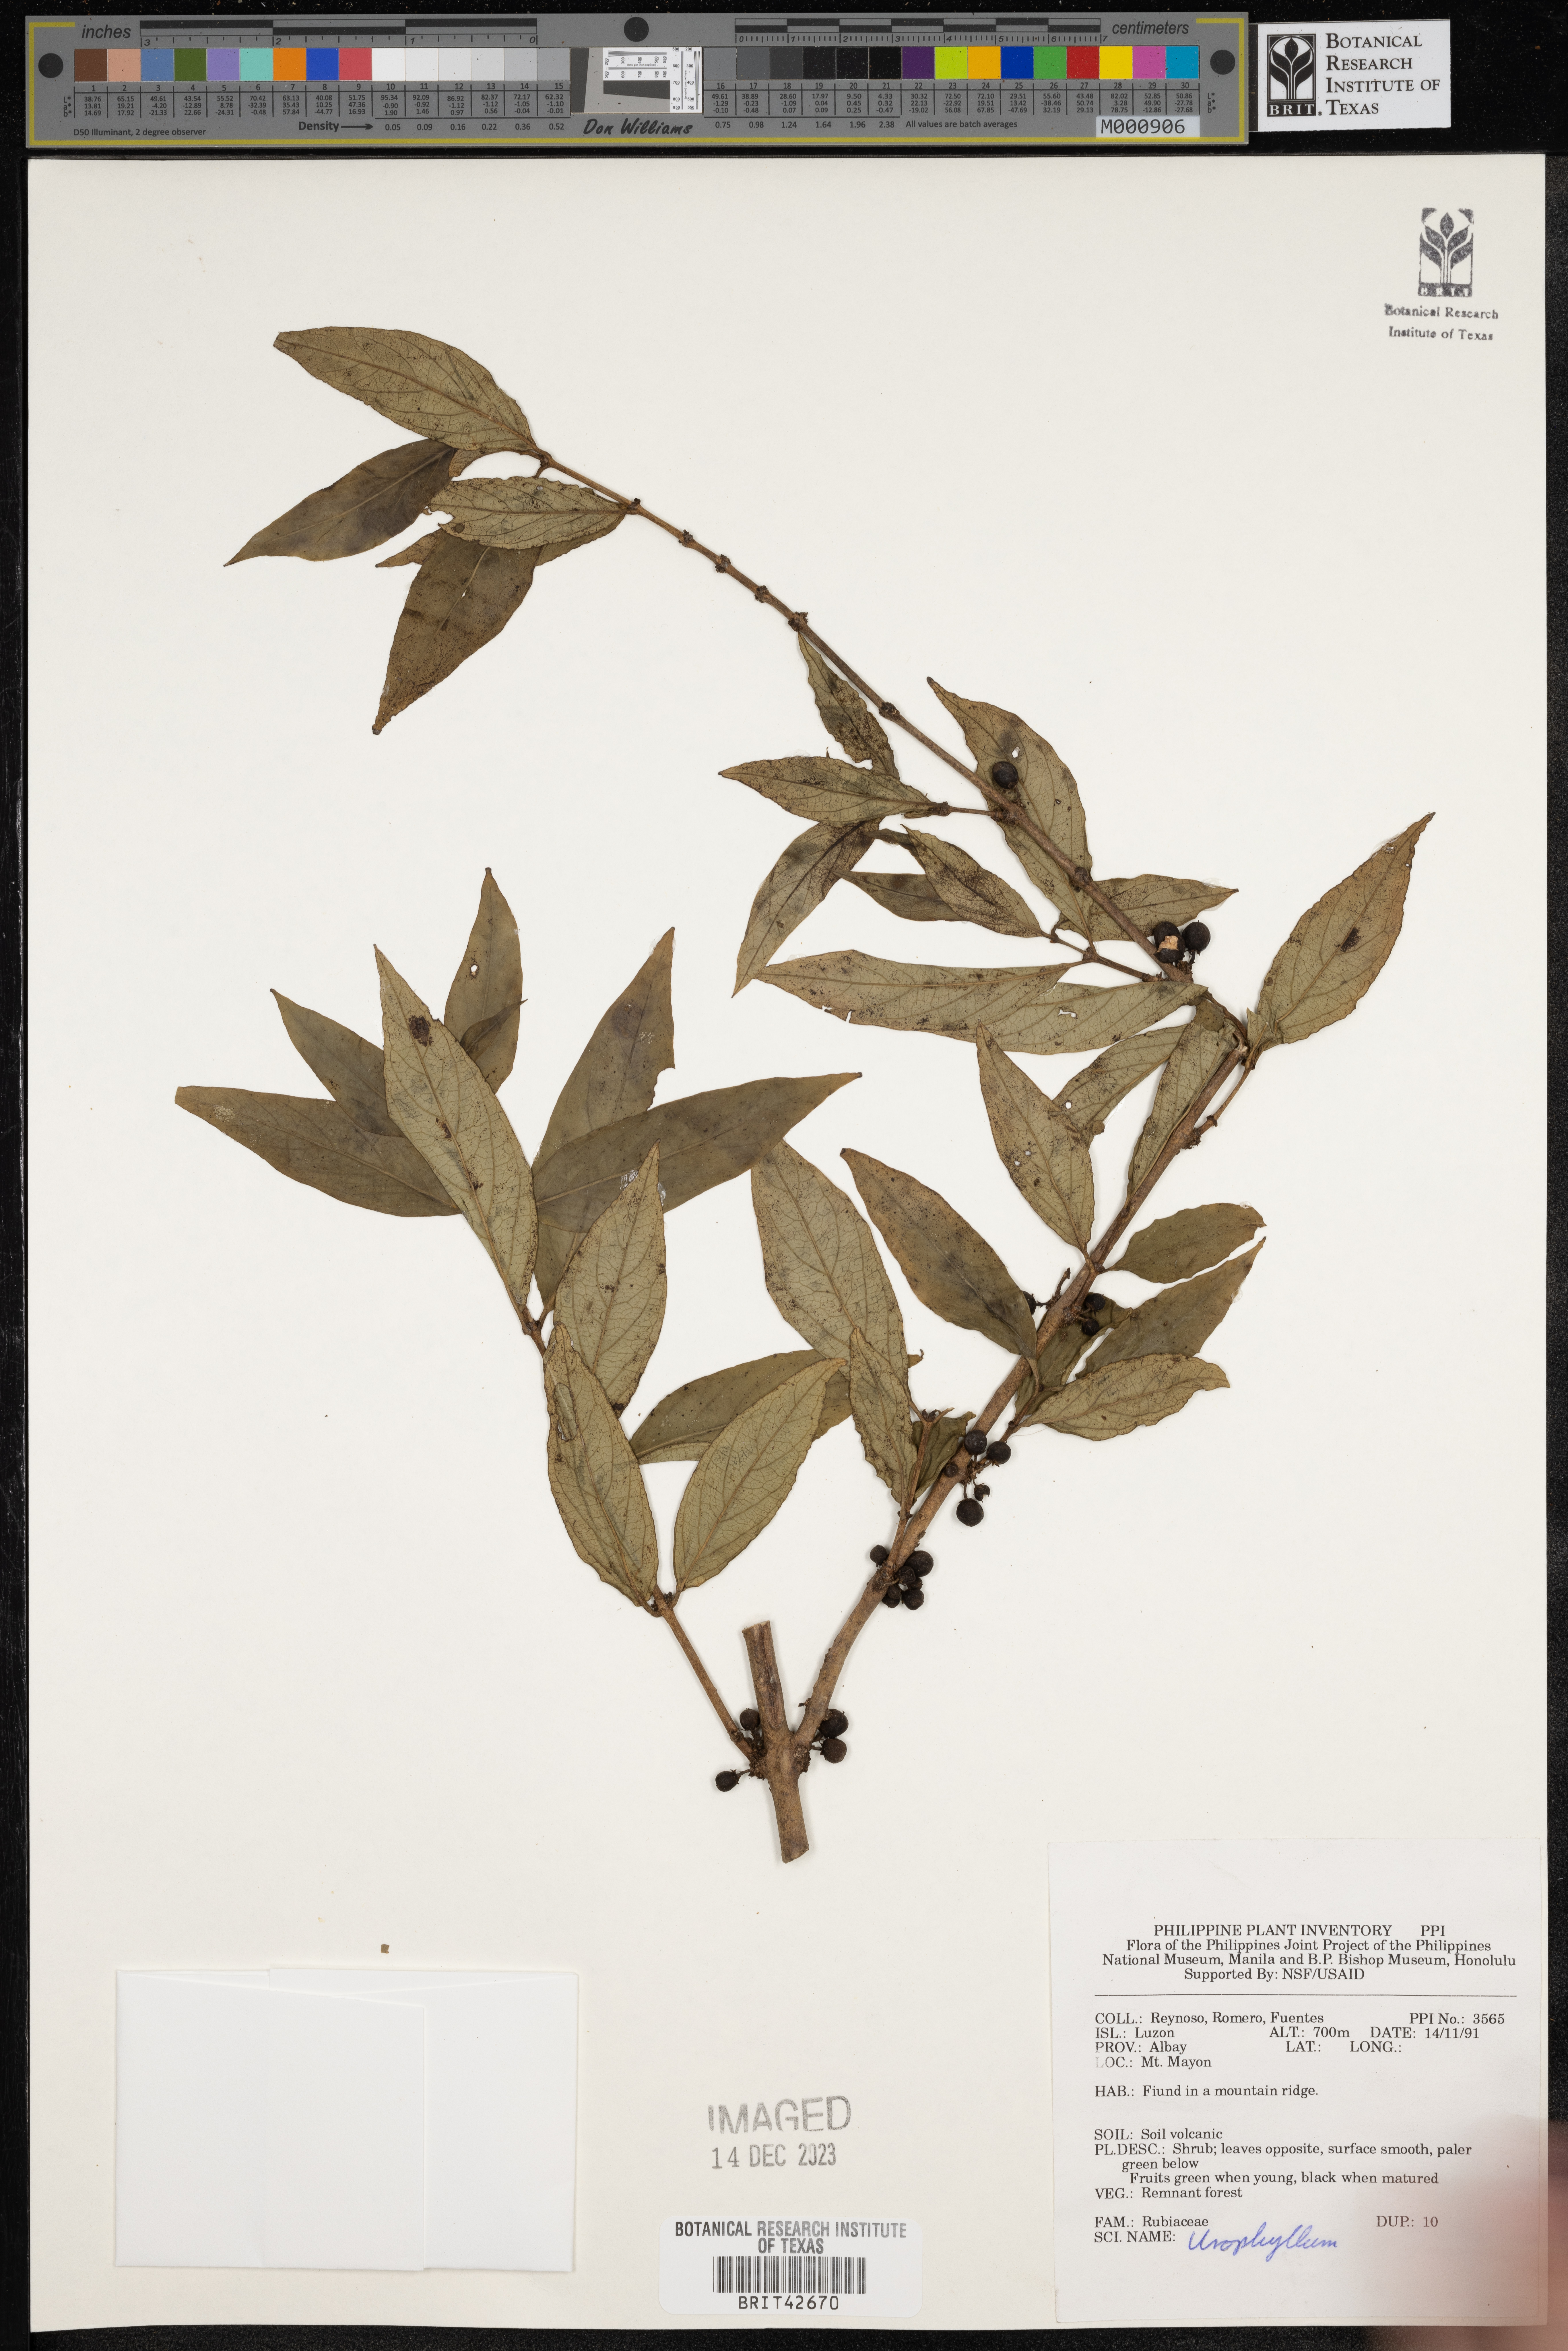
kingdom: Plantae
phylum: Tracheophyta
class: Magnoliopsida
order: Gentianales
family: Rubiaceae
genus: Urophyllum
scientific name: Urophyllum
